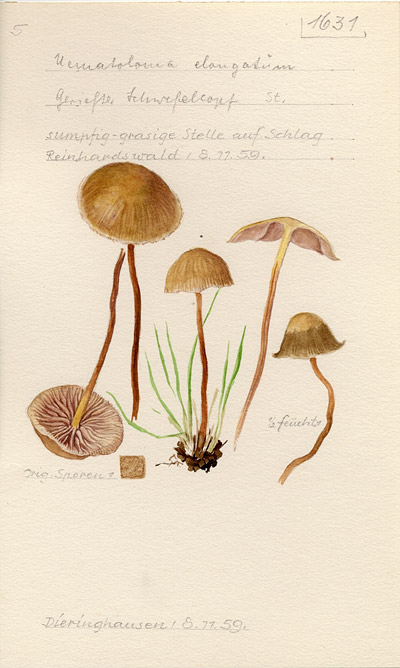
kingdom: Fungi
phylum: Basidiomycota
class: Agaricomycetes
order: Agaricales
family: Strophariaceae
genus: Hypholoma
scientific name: Hypholoma ericaeoides
